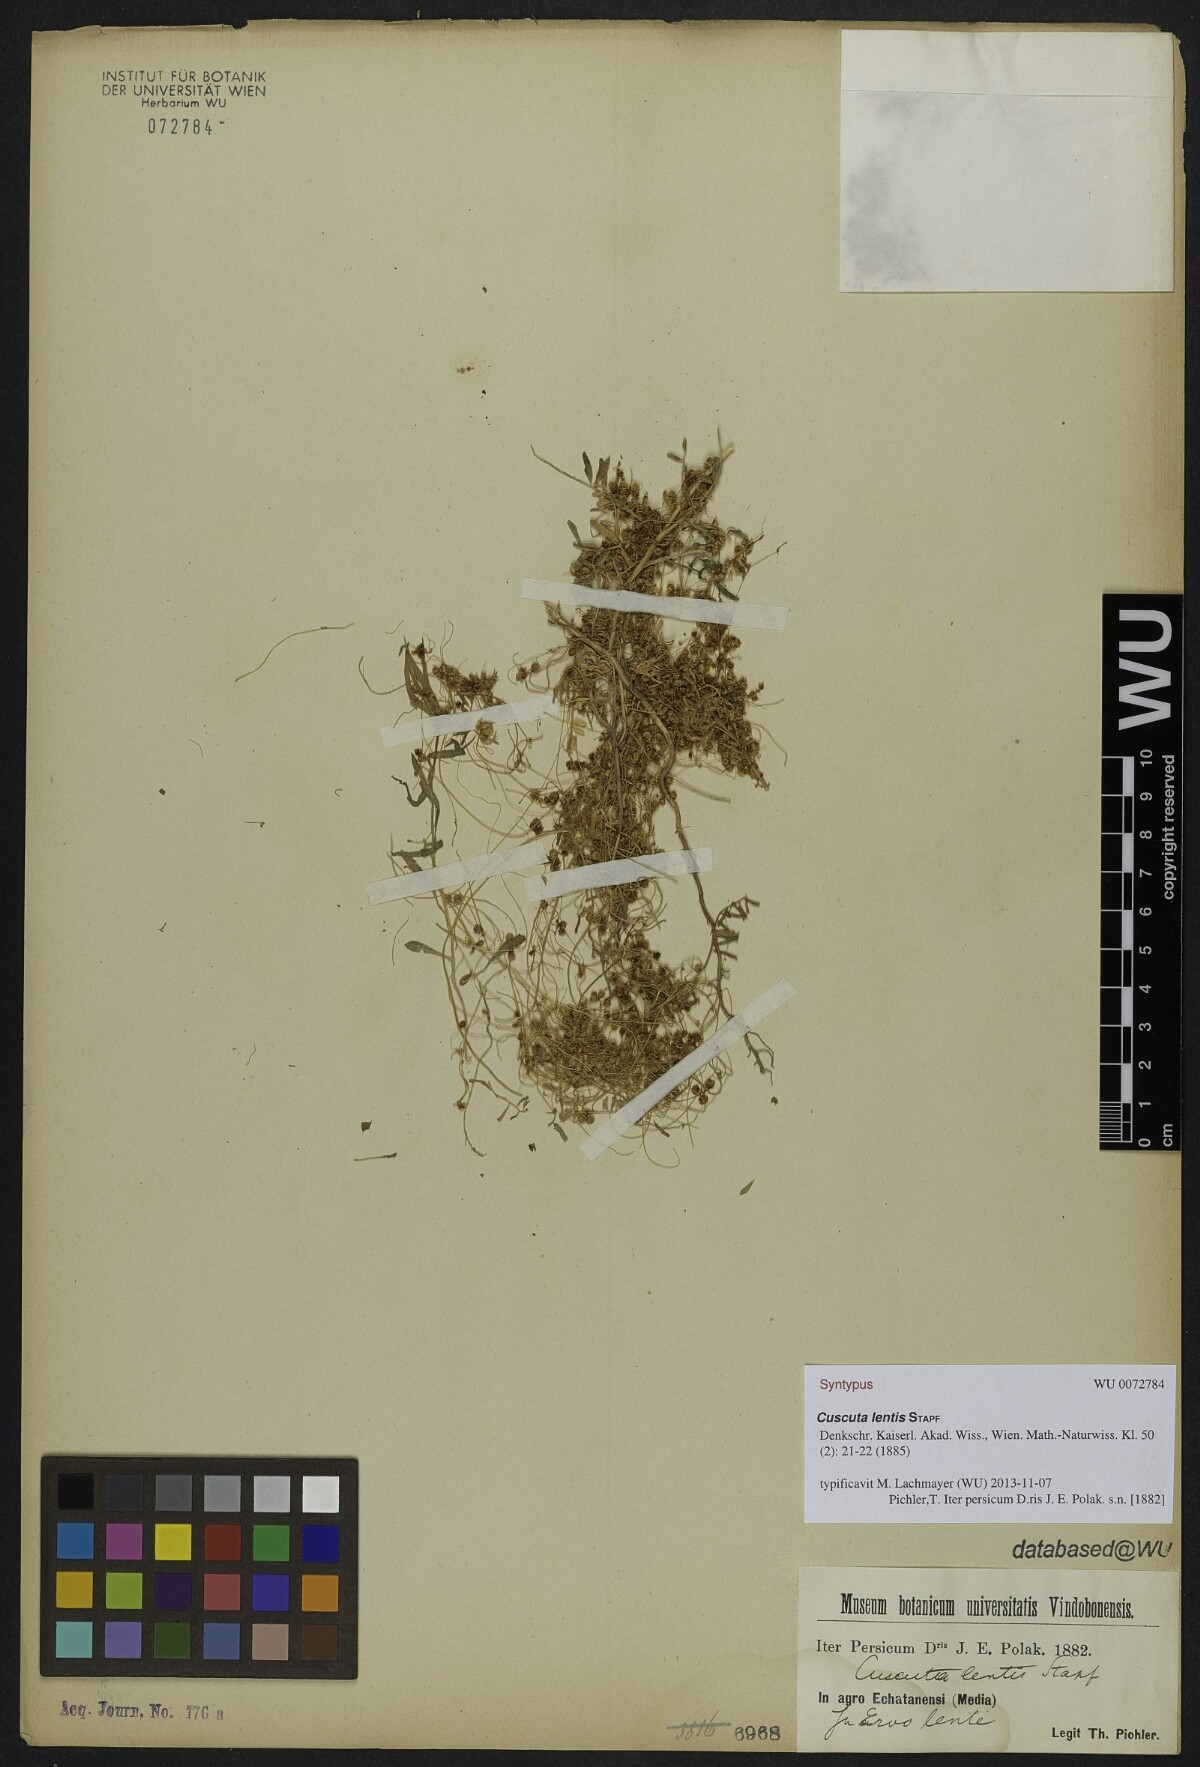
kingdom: Plantae
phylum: Tracheophyta
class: Magnoliopsida
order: Solanales
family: Convolvulaceae
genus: Cuscuta
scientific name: Cuscuta pedicellata
